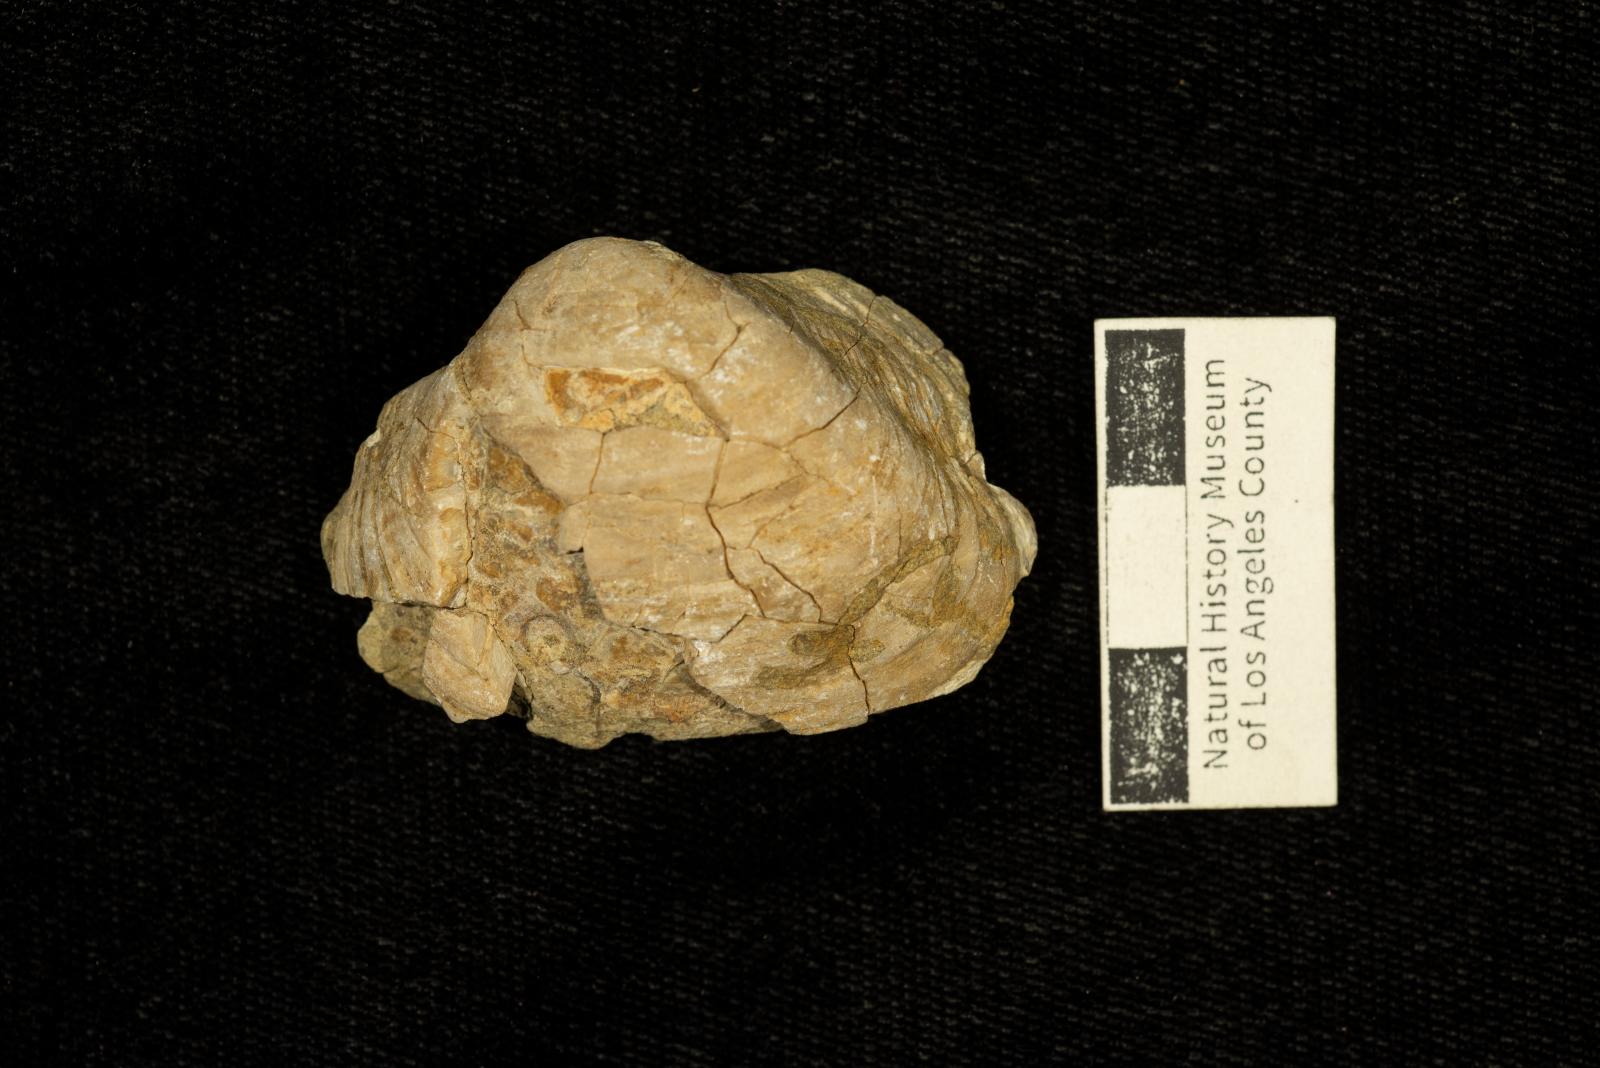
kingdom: Animalia
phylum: Mollusca
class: Bivalvia
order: Arcida
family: Cucullaeidae
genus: Idonearca
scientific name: Idonearca Arca gravida
